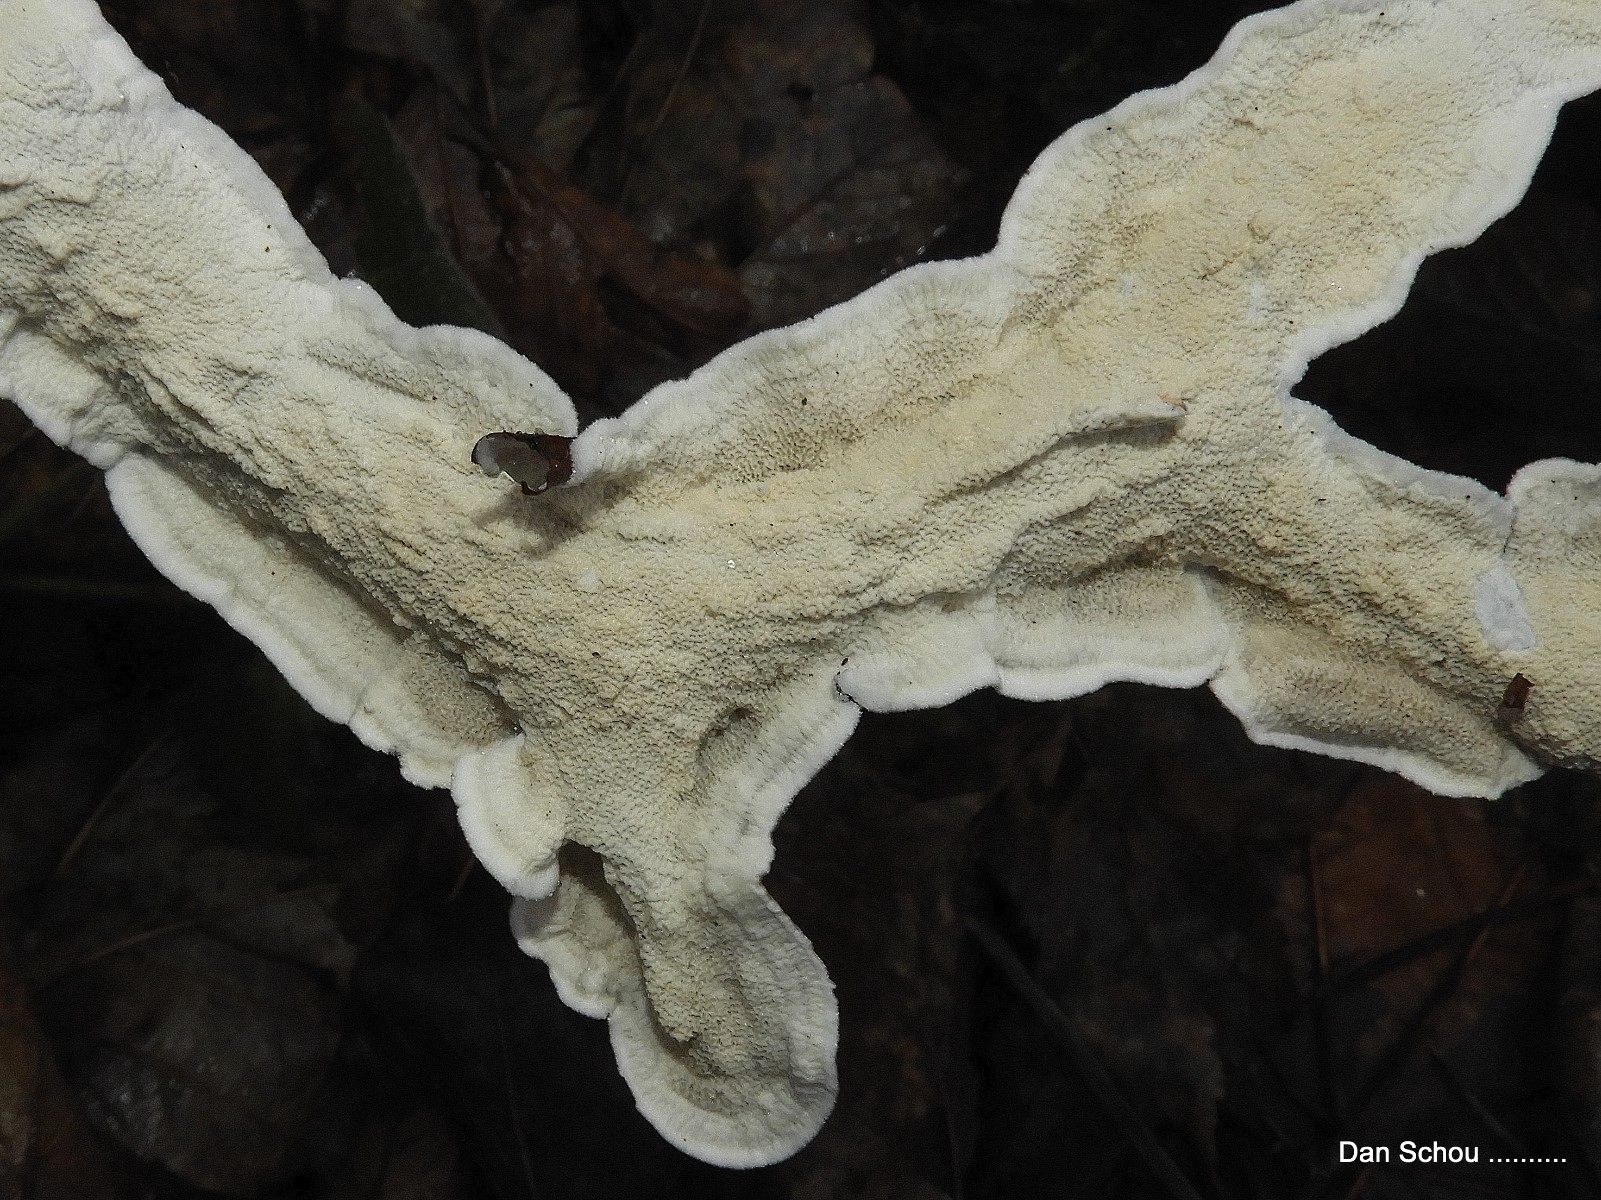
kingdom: Fungi
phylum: Basidiomycota
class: Agaricomycetes
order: Polyporales
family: Irpicaceae
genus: Byssomerulius
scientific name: Byssomerulius corium
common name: læder-åresvamp
